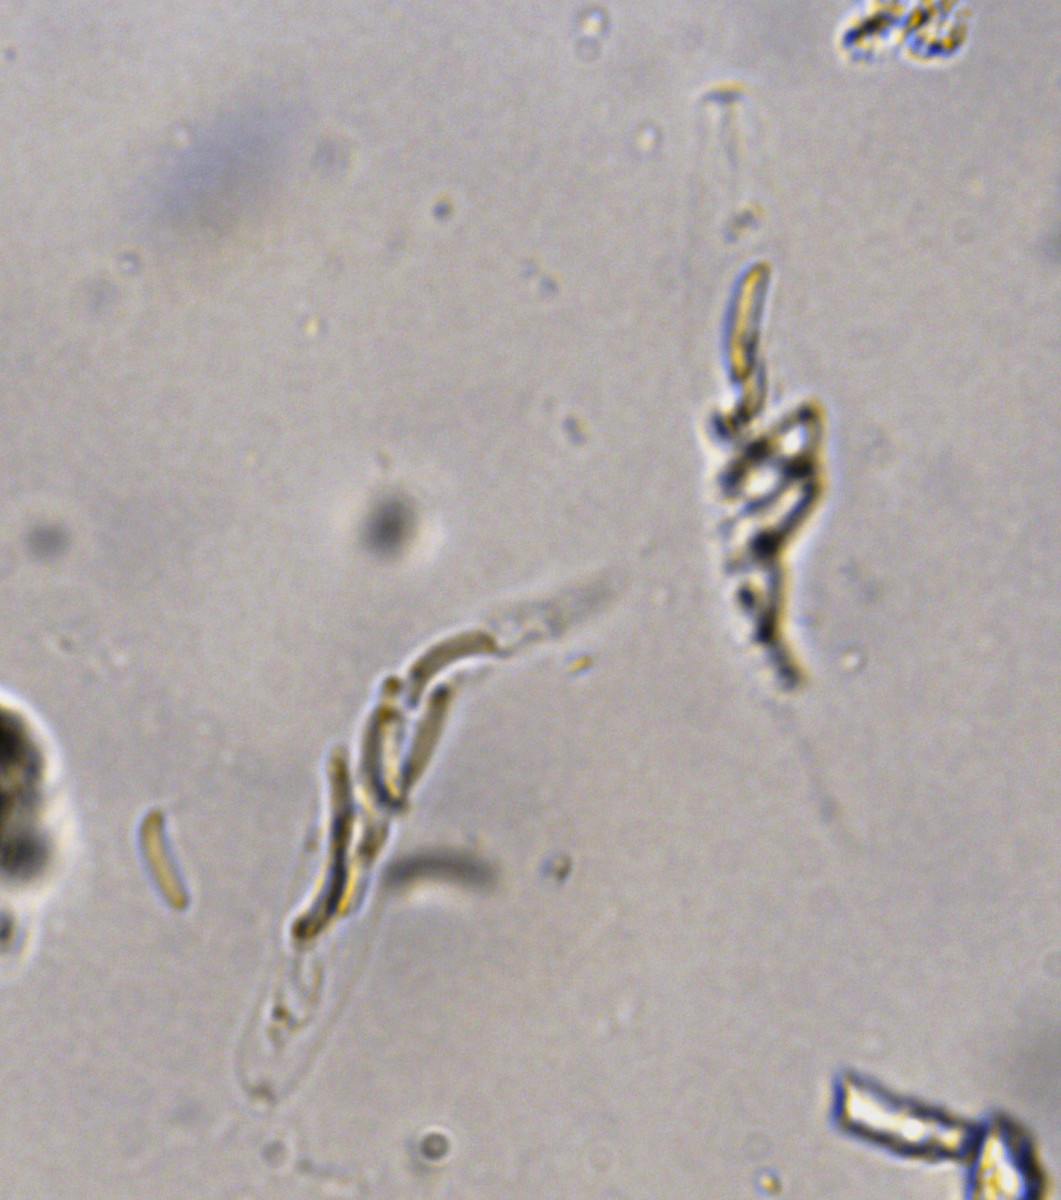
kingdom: Fungi
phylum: Ascomycota
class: Sordariomycetes
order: Xylariales
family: Diatrypaceae
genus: Eutypella
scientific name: Eutypella prunastri
